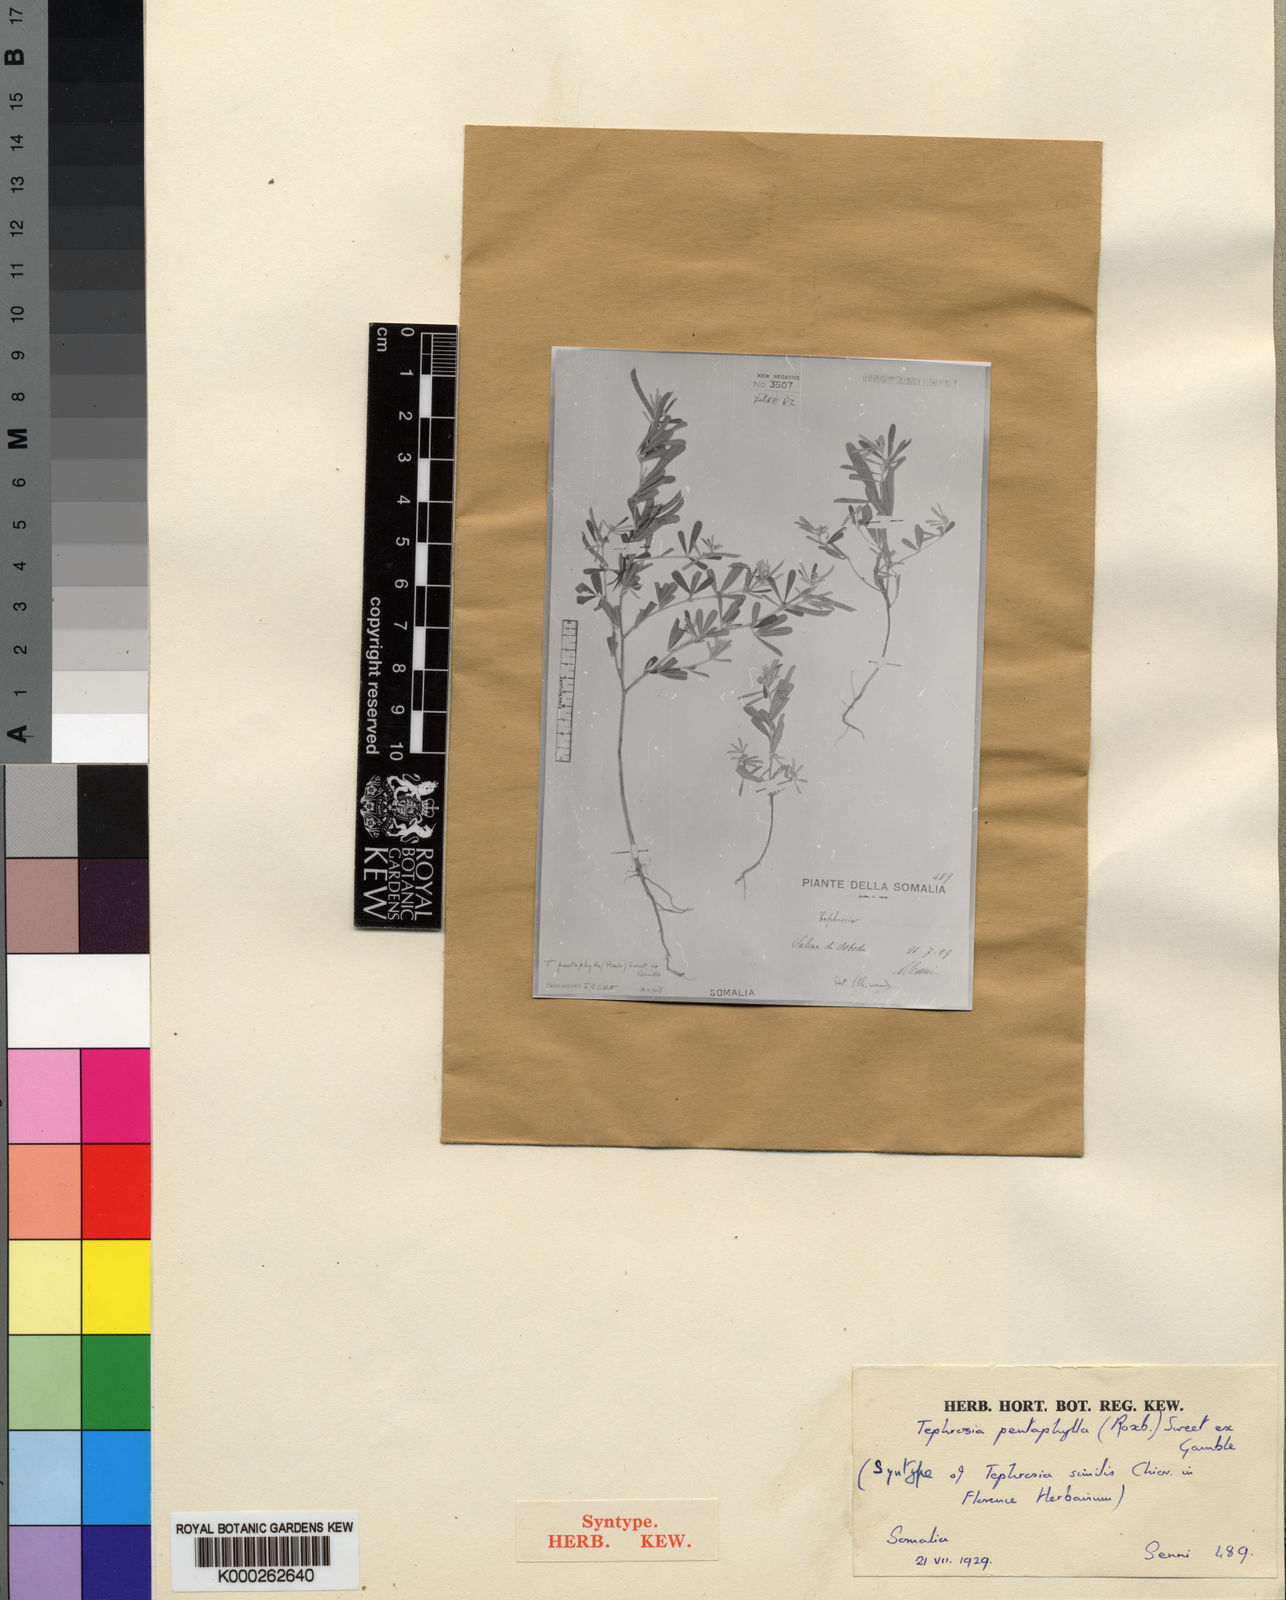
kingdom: Plantae
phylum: Tracheophyta
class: Magnoliopsida
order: Fabales
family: Fabaceae
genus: Tephrosia
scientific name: Tephrosia
